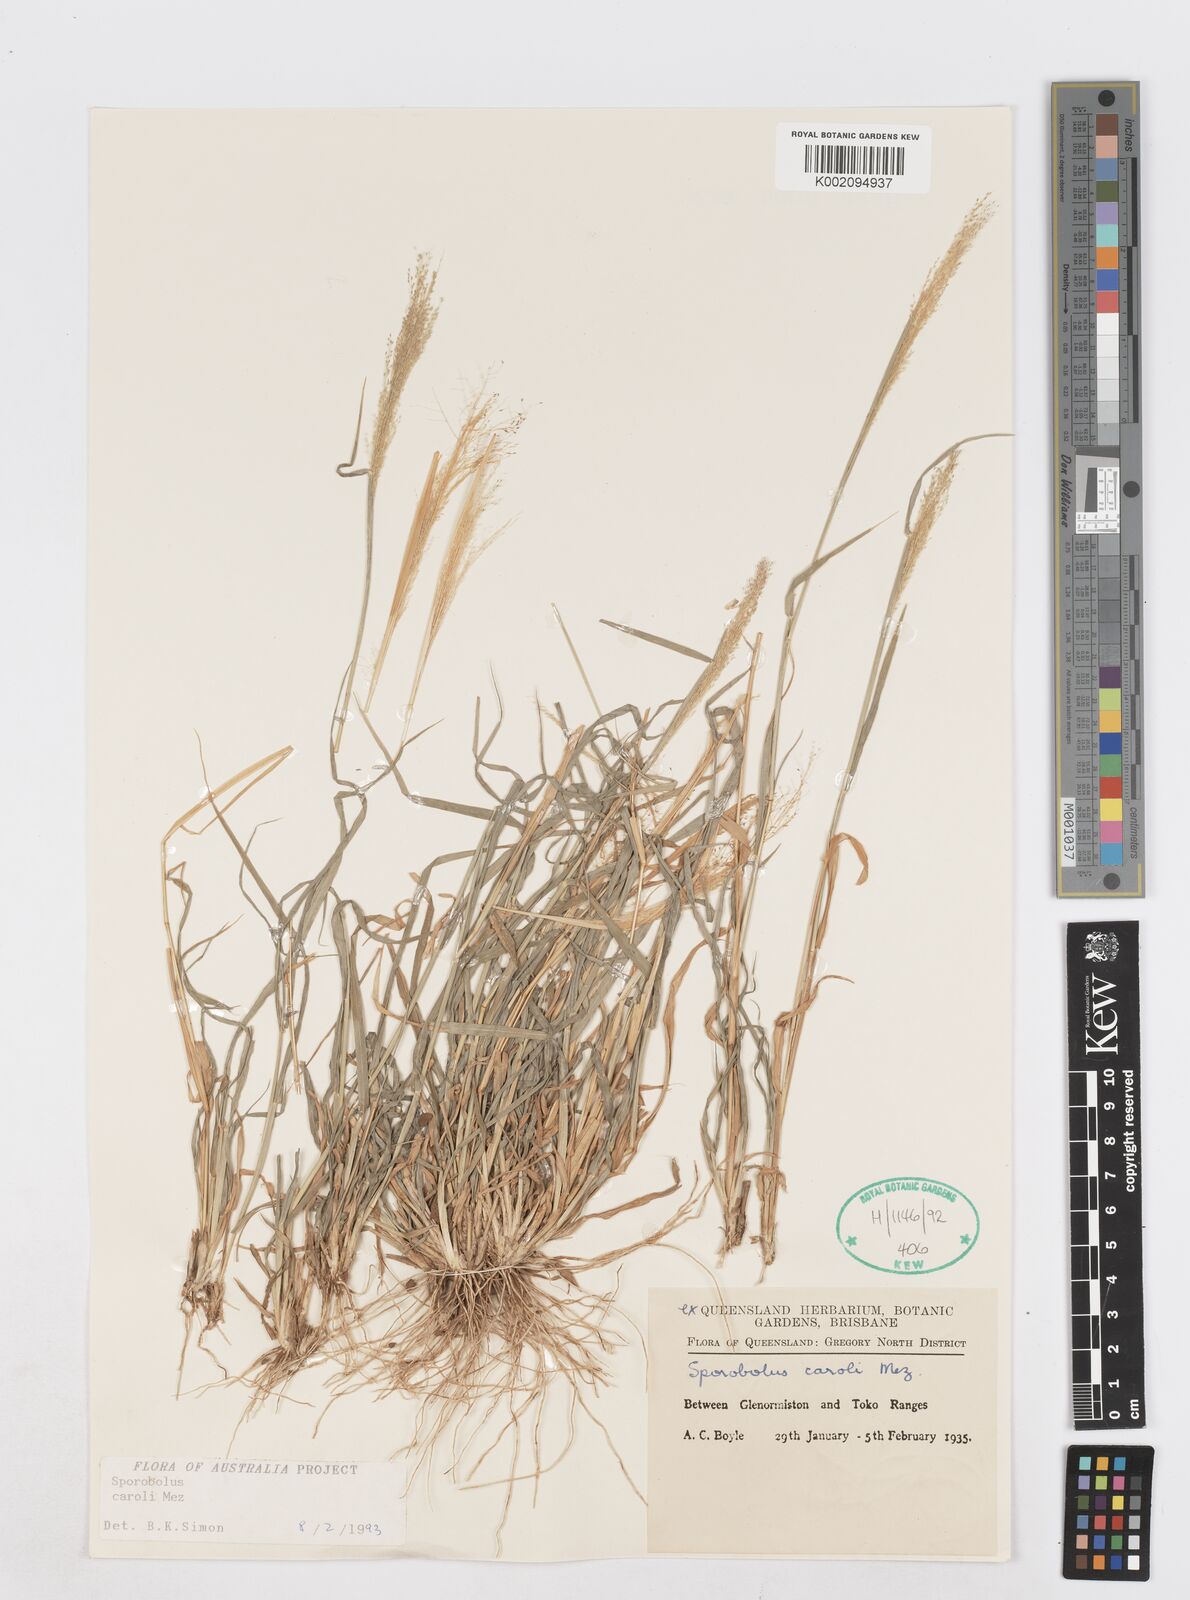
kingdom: Plantae
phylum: Tracheophyta
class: Liliopsida
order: Poales
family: Poaceae
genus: Sporobolus
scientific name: Sporobolus caroli
